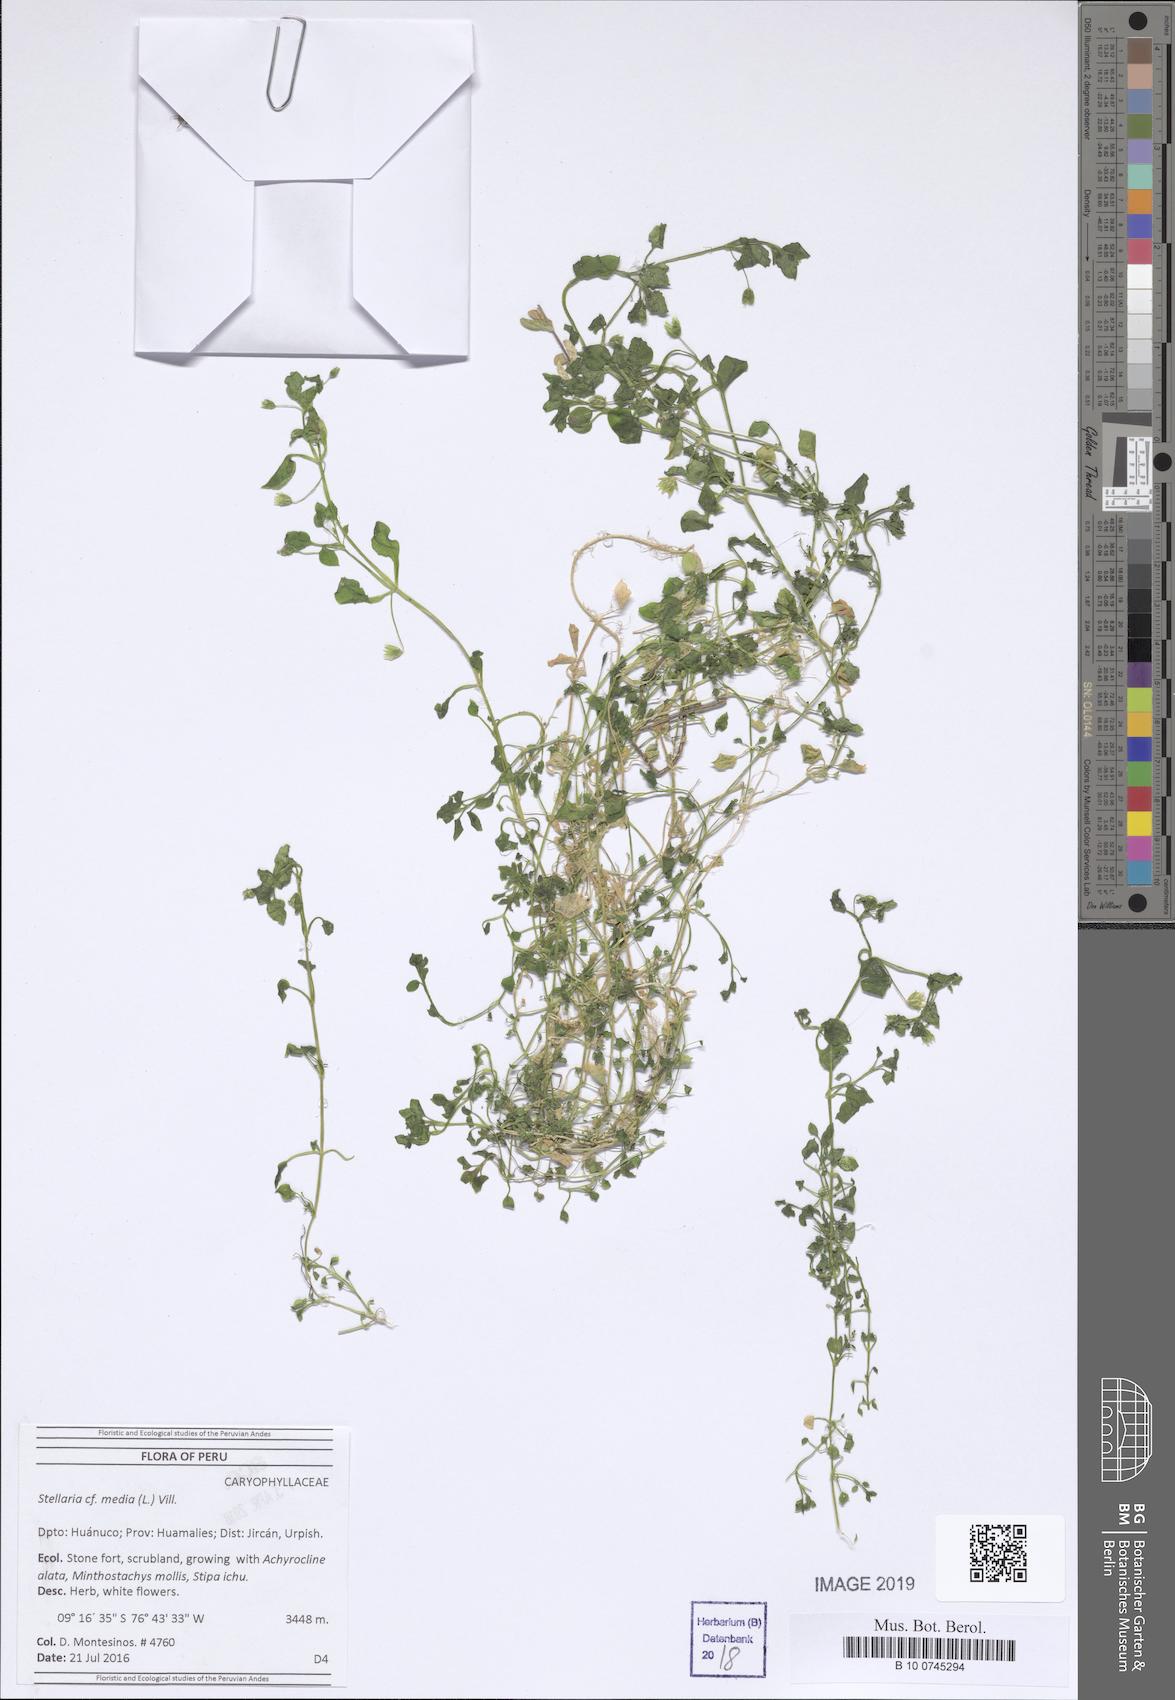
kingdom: Plantae
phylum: Tracheophyta
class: Magnoliopsida
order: Caryophyllales
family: Caryophyllaceae
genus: Stellaria
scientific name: Stellaria media
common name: Common chickweed
